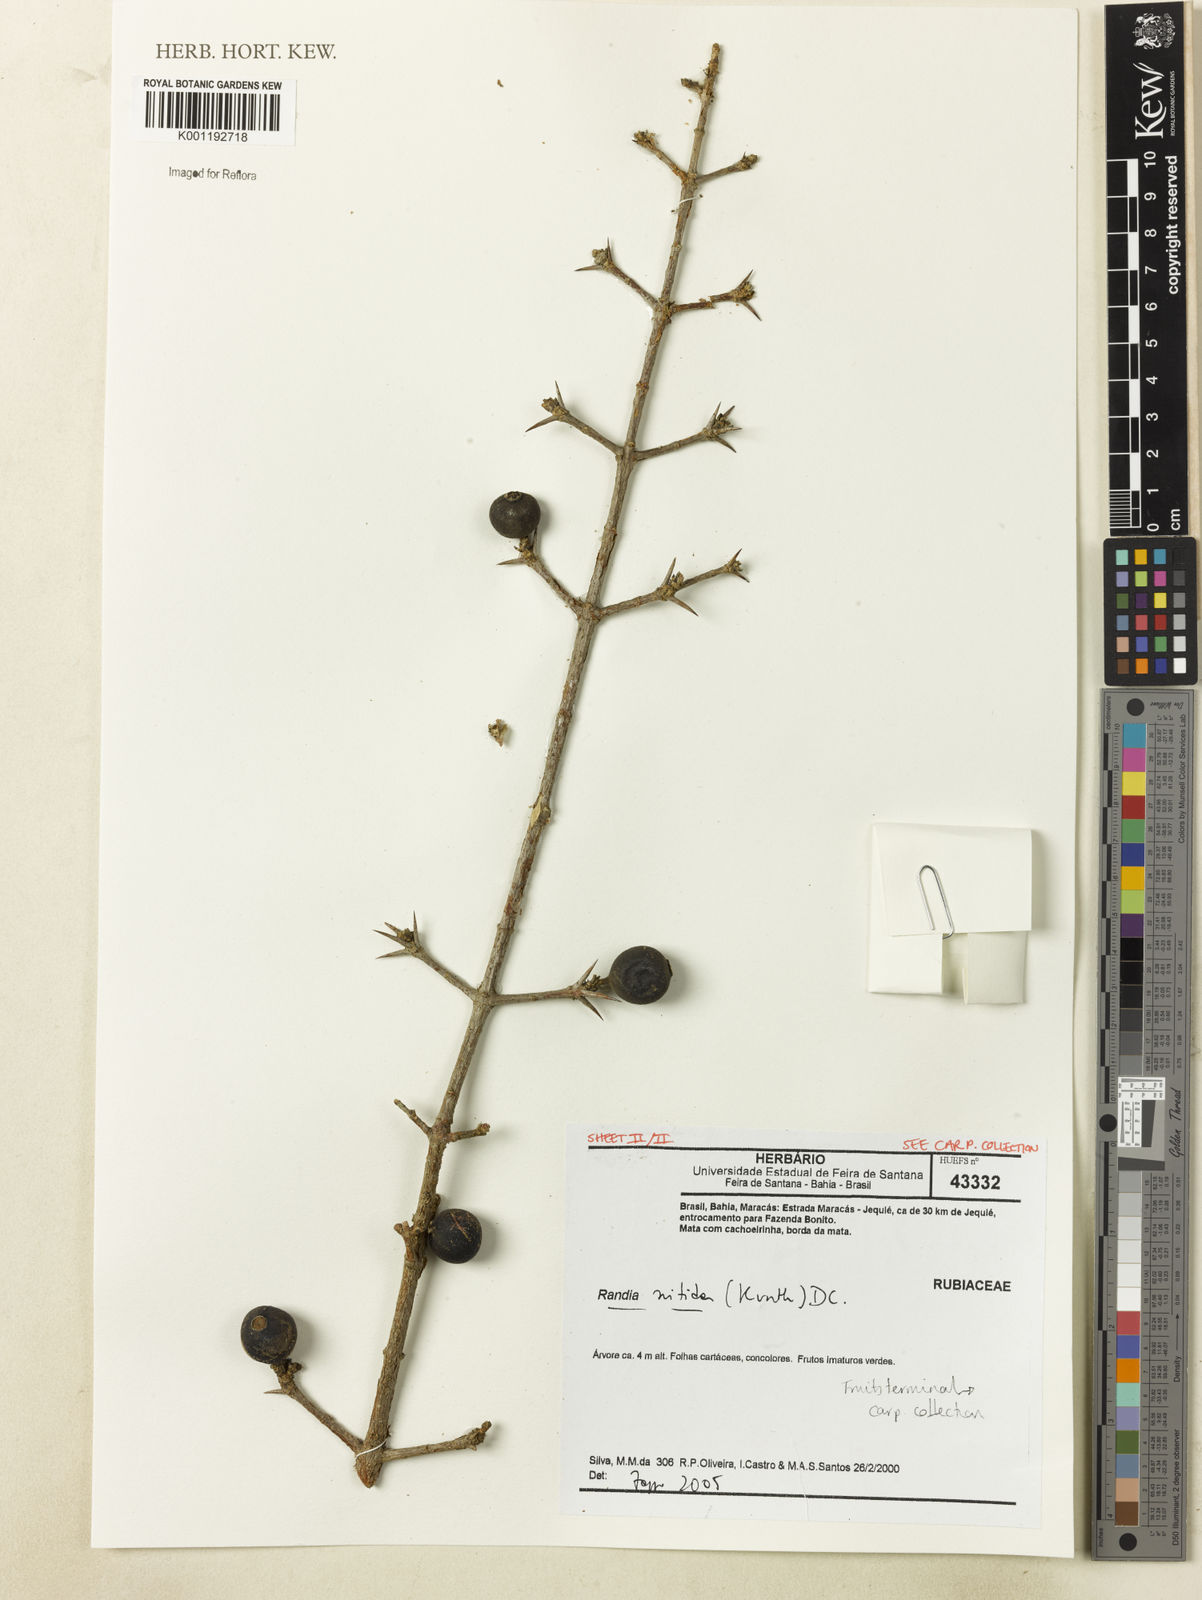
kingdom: Plantae
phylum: Tracheophyta
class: Magnoliopsida
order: Gentianales
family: Rubiaceae
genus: Randia
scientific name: Randia nitida
